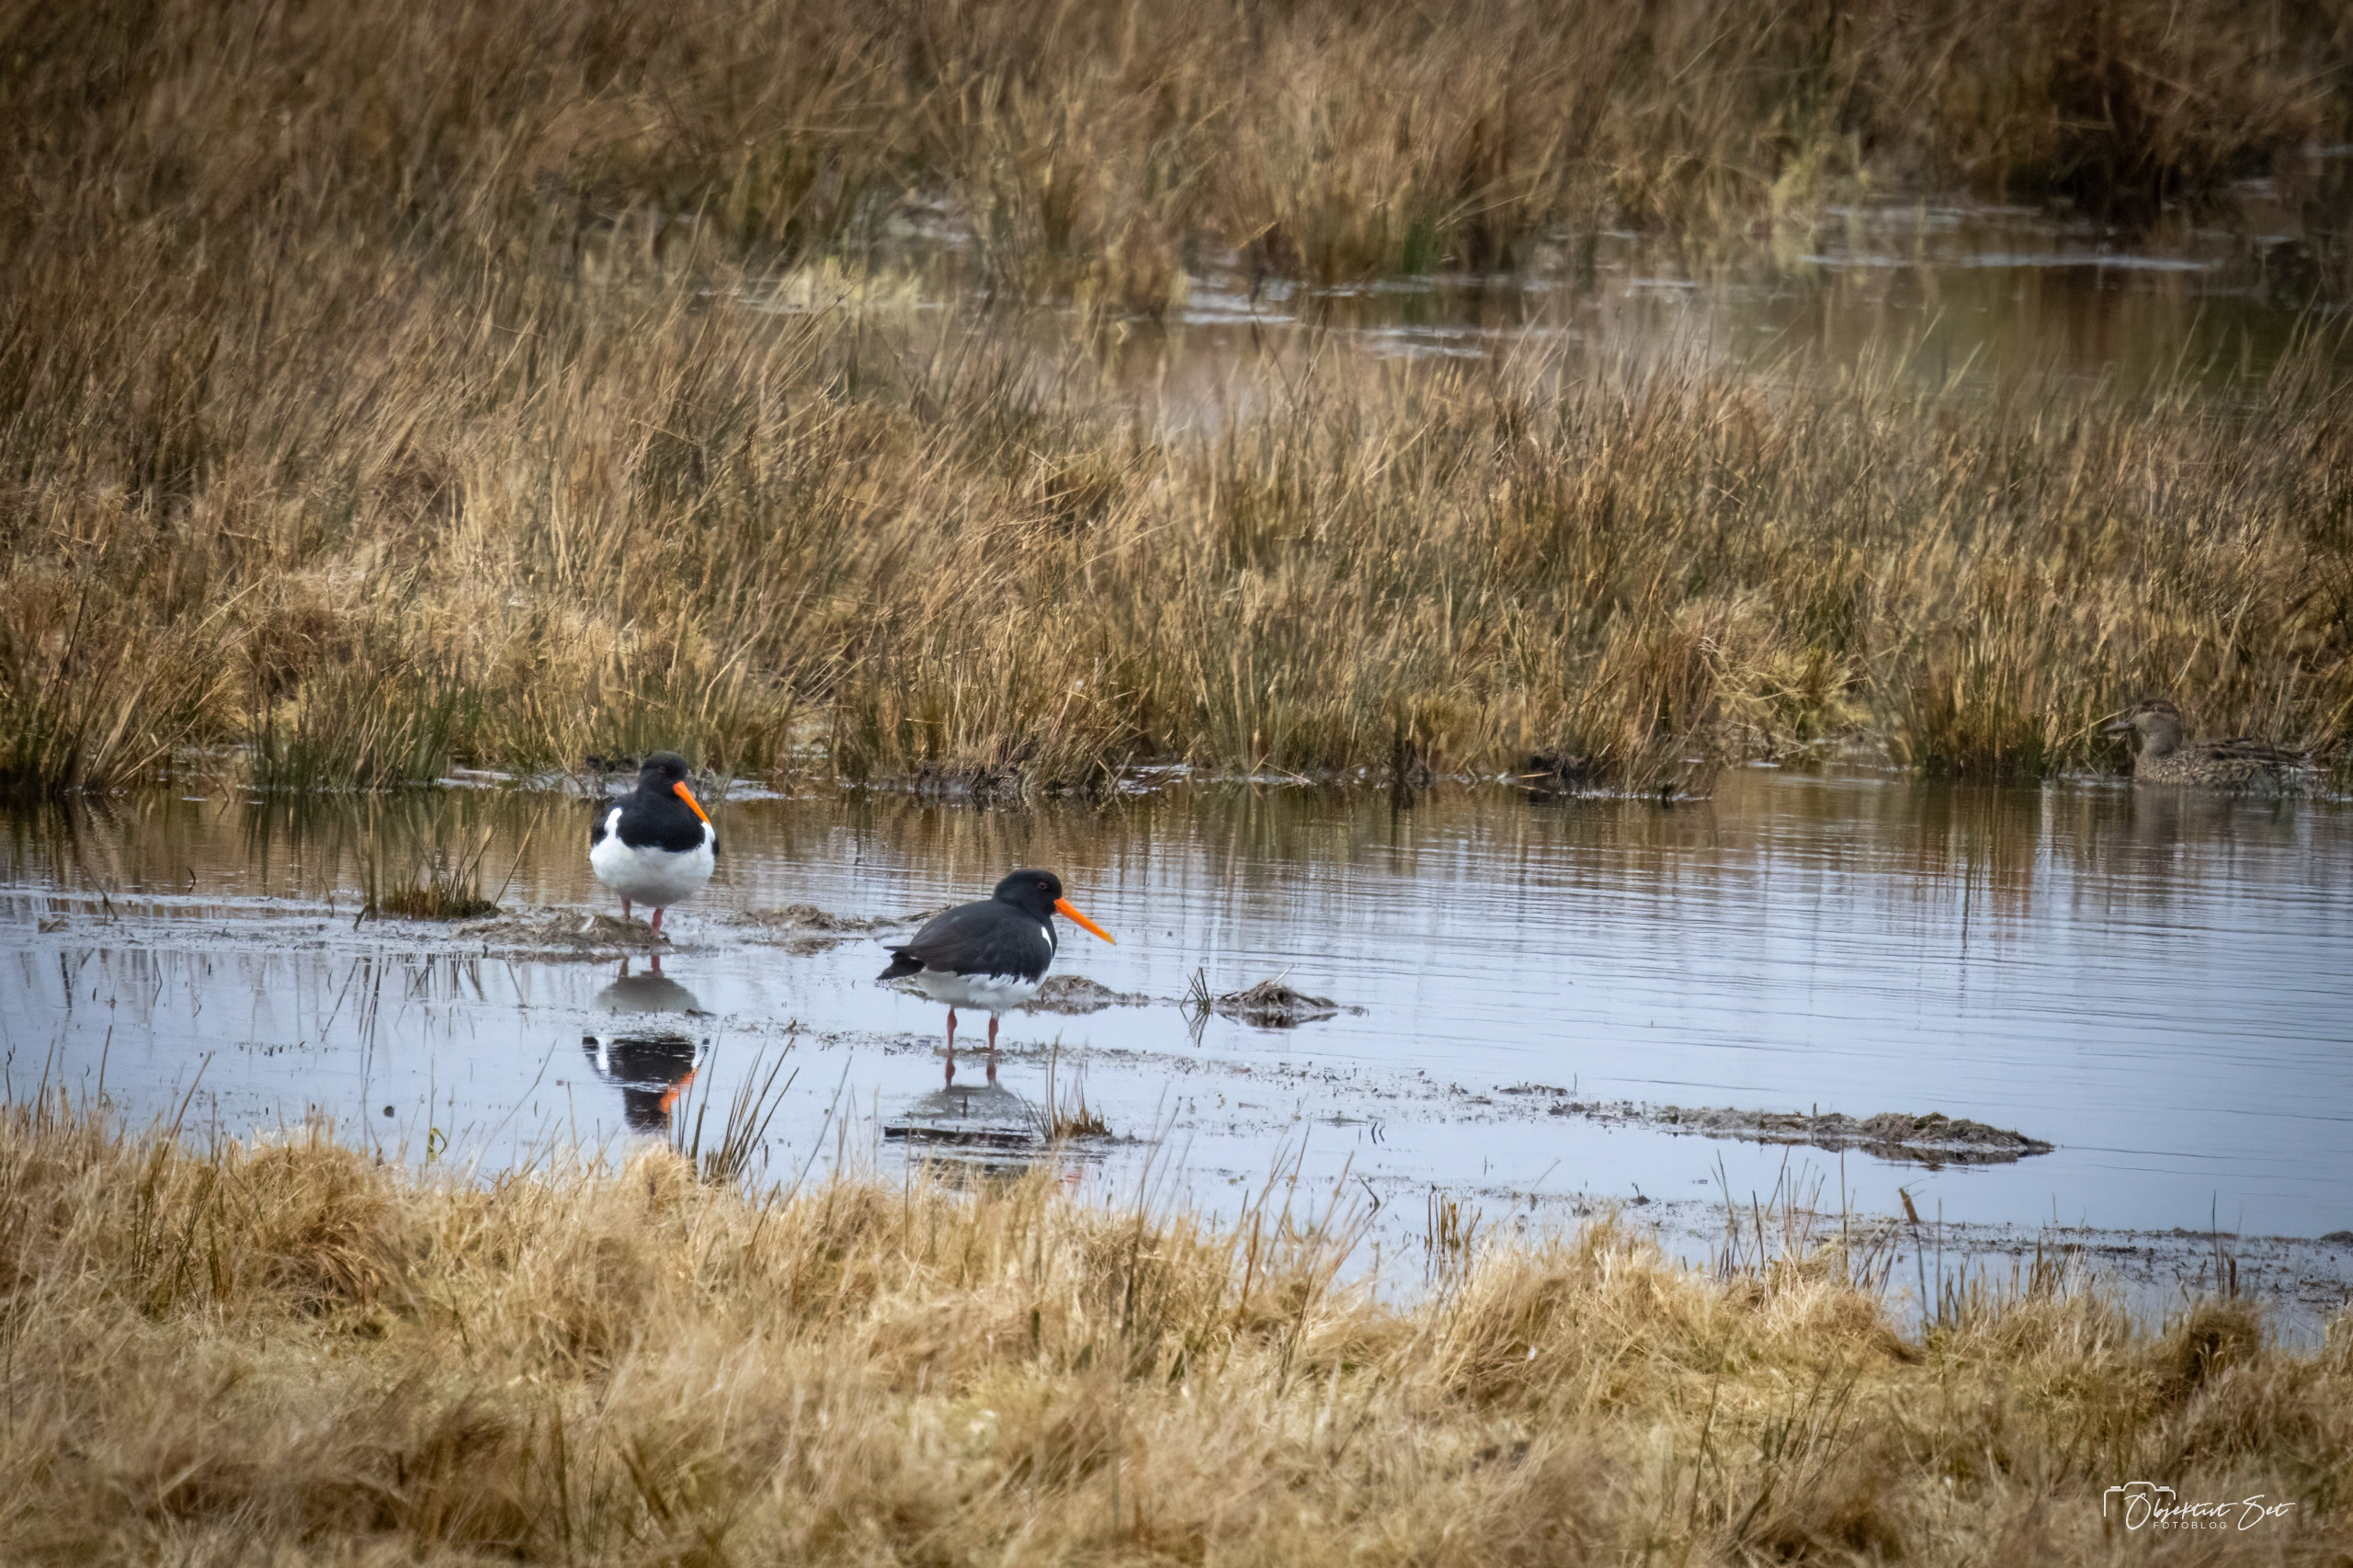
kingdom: Animalia
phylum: Chordata
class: Aves
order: Charadriiformes
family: Haematopodidae
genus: Haematopus
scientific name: Haematopus ostralegus
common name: Strandskade
